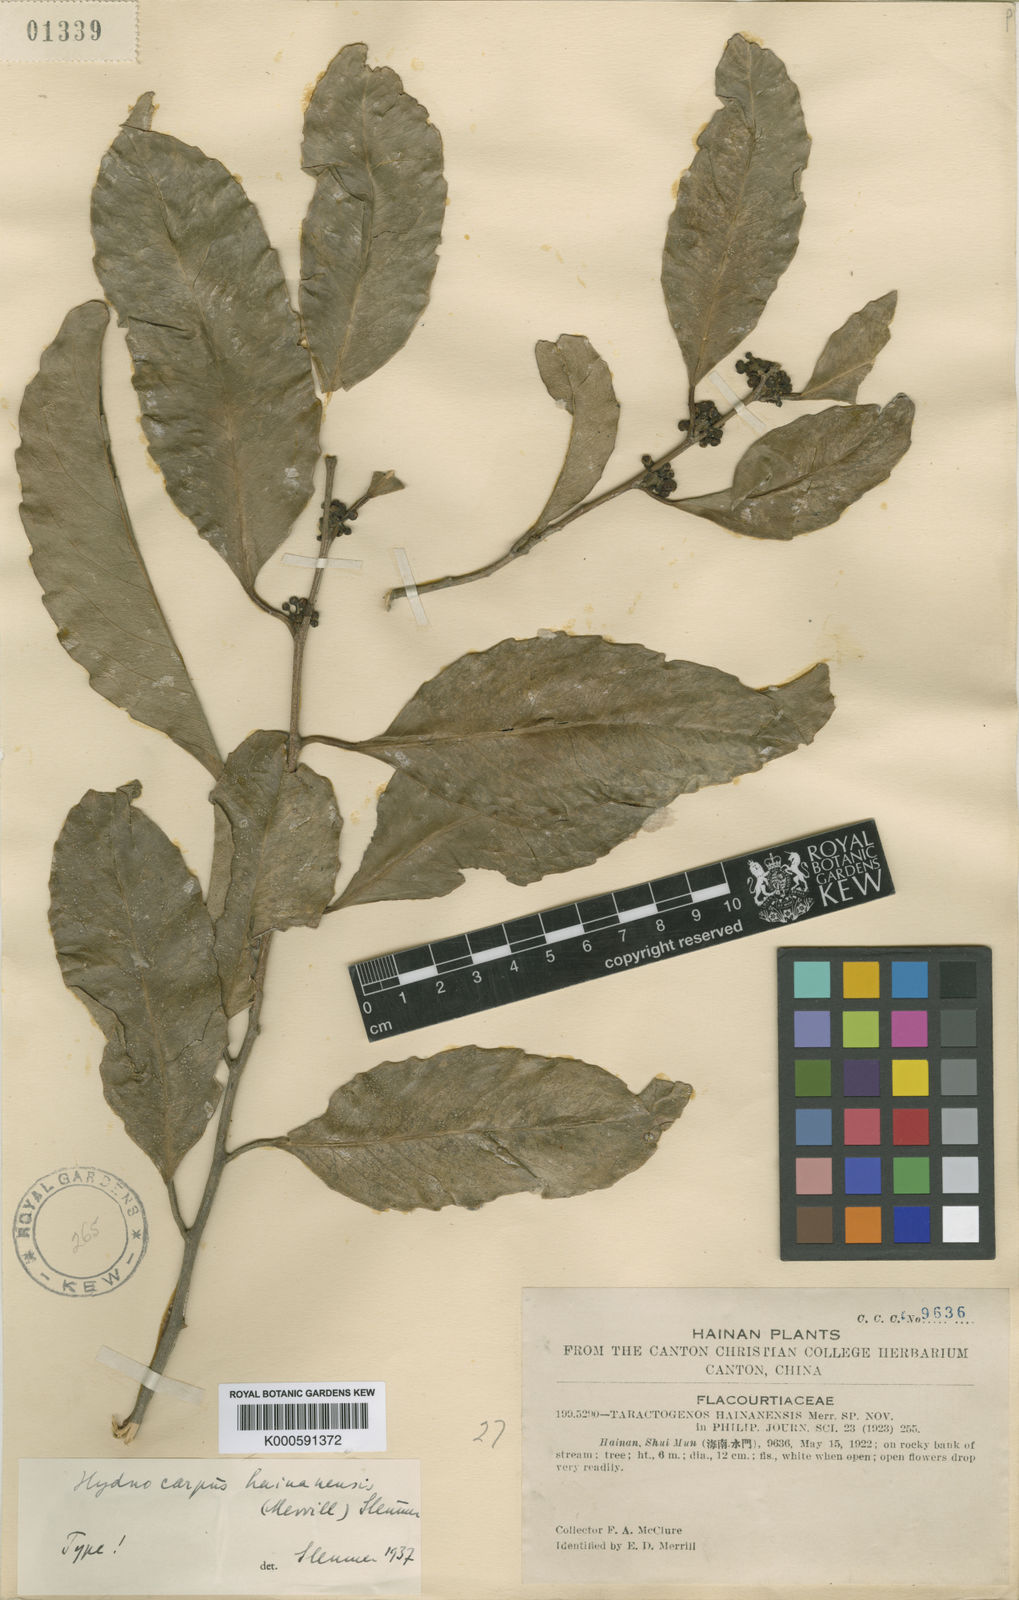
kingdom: Plantae
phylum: Tracheophyta
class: Magnoliopsida
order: Malpighiales
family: Achariaceae
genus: Hydnocarpus
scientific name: Hydnocarpus hainanensis
